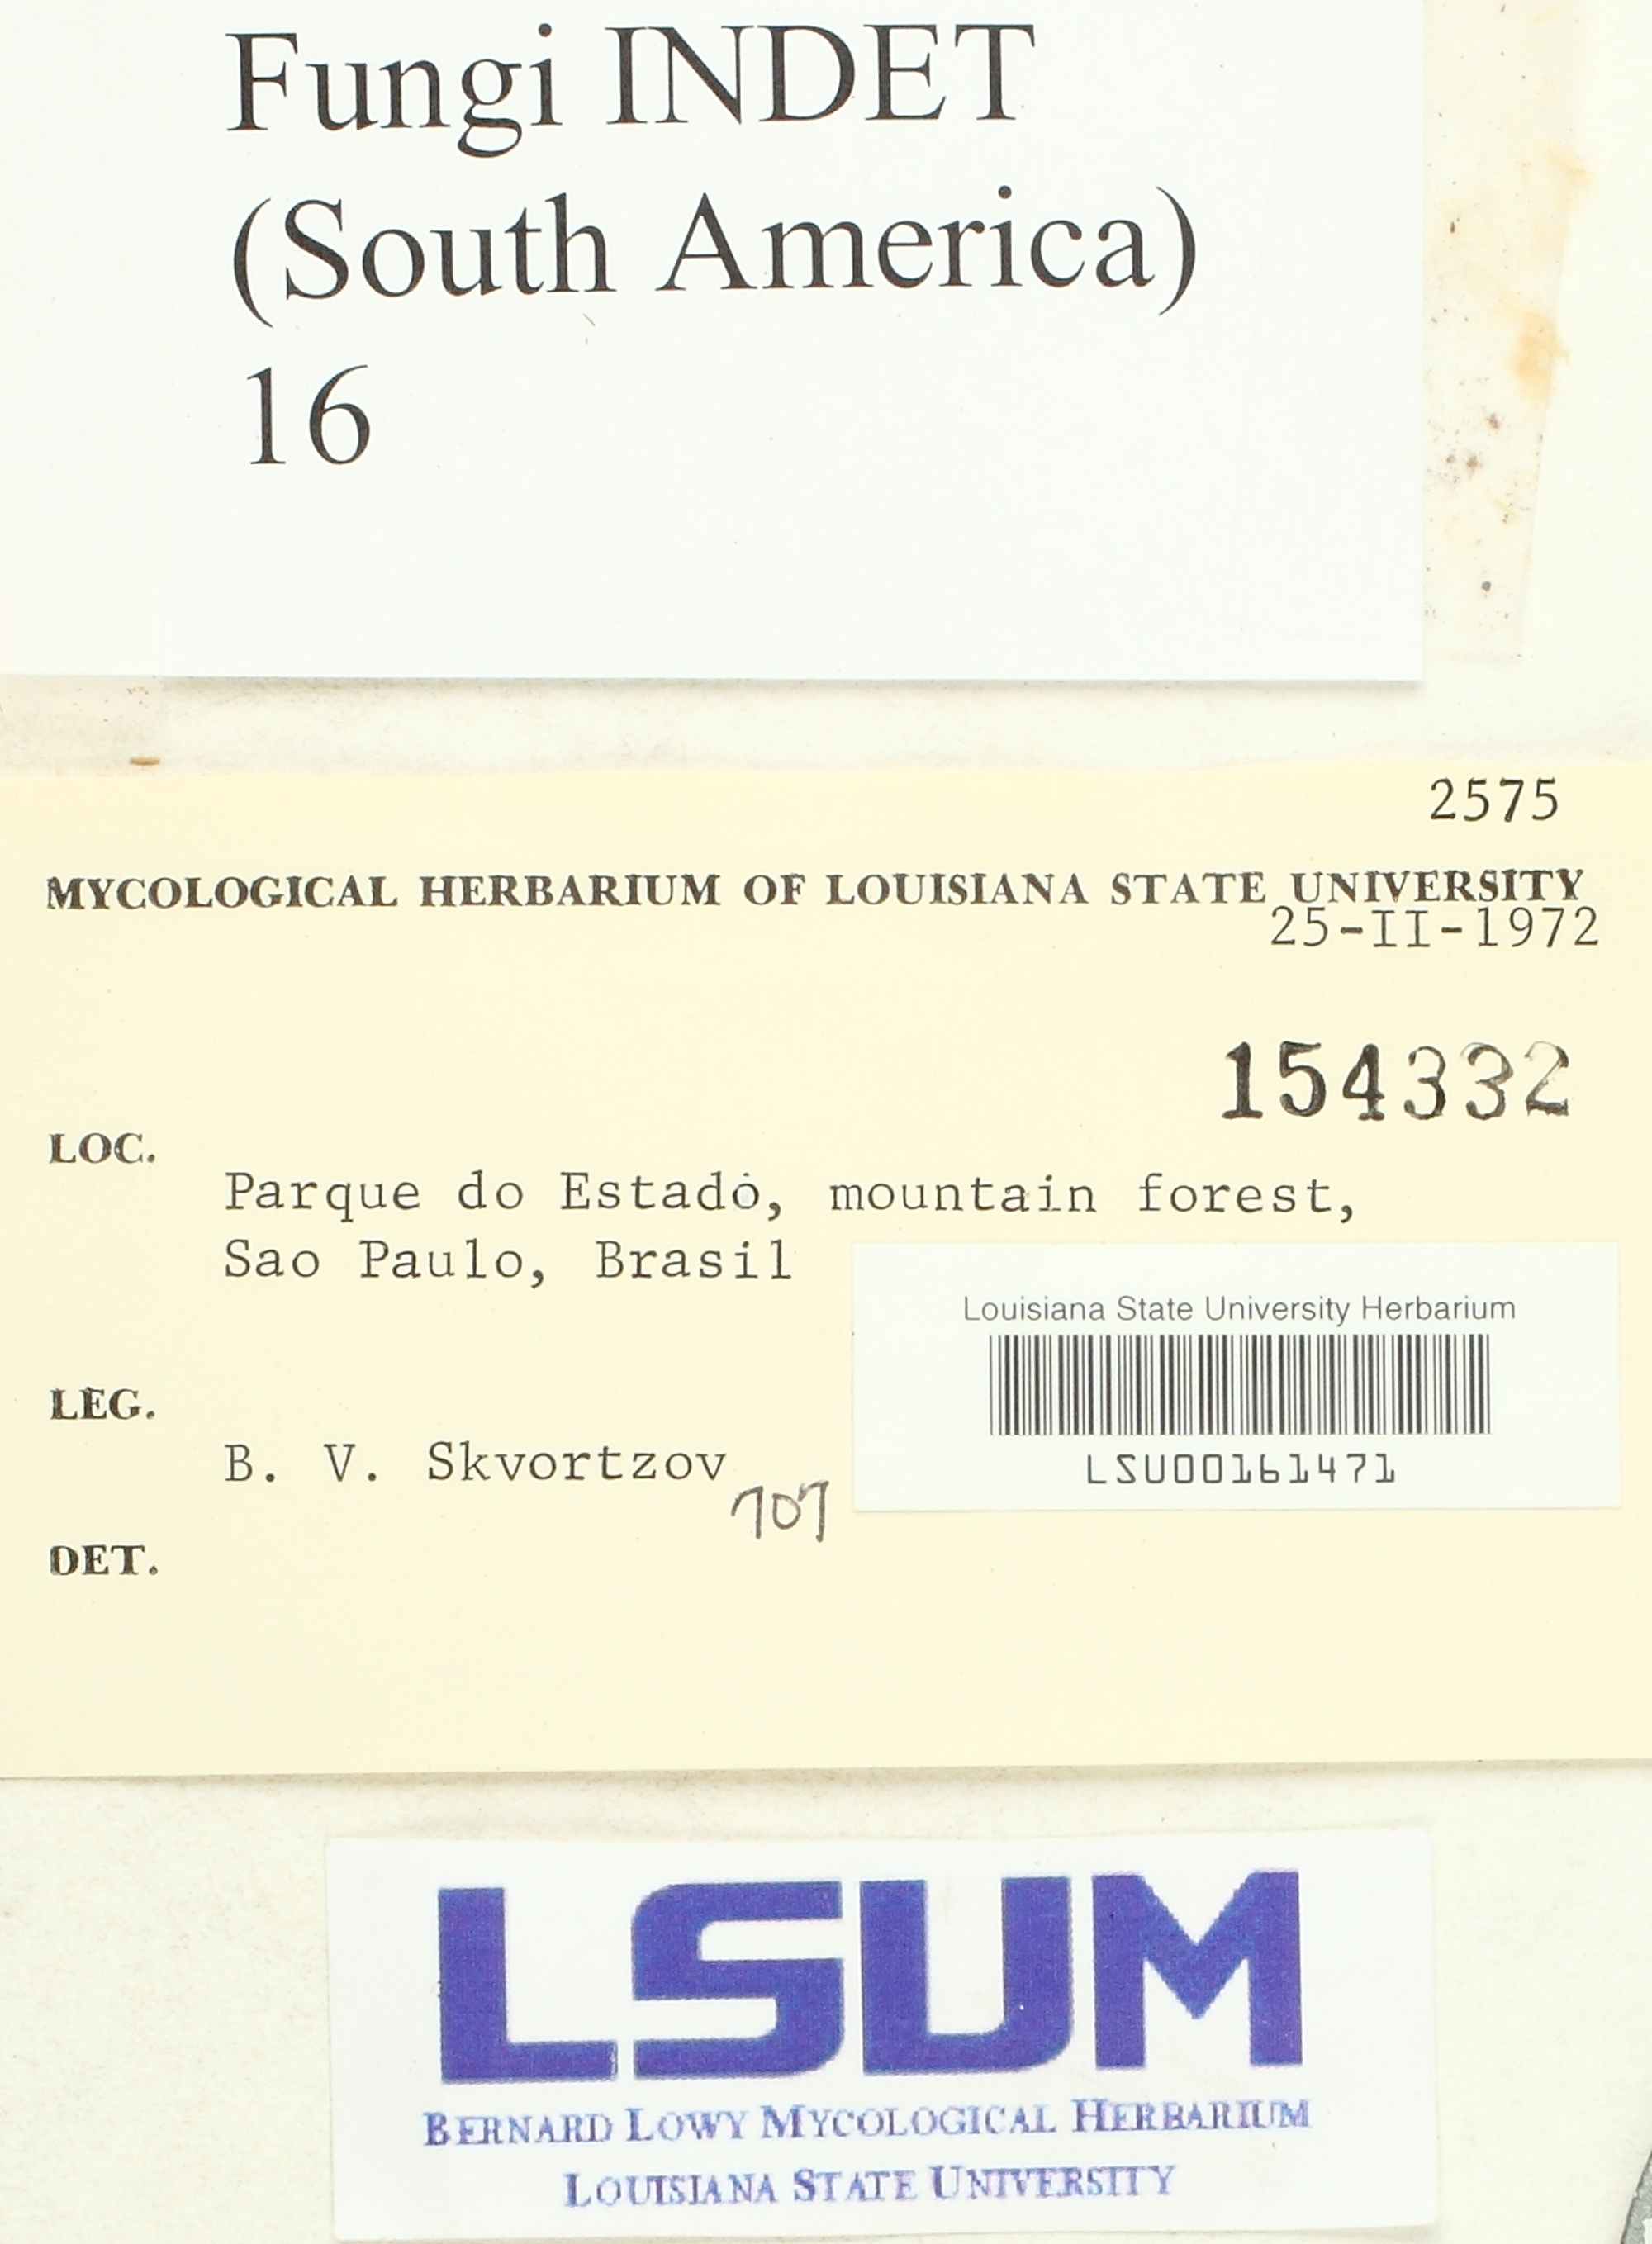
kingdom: Fungi
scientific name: Fungi
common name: Fungi
